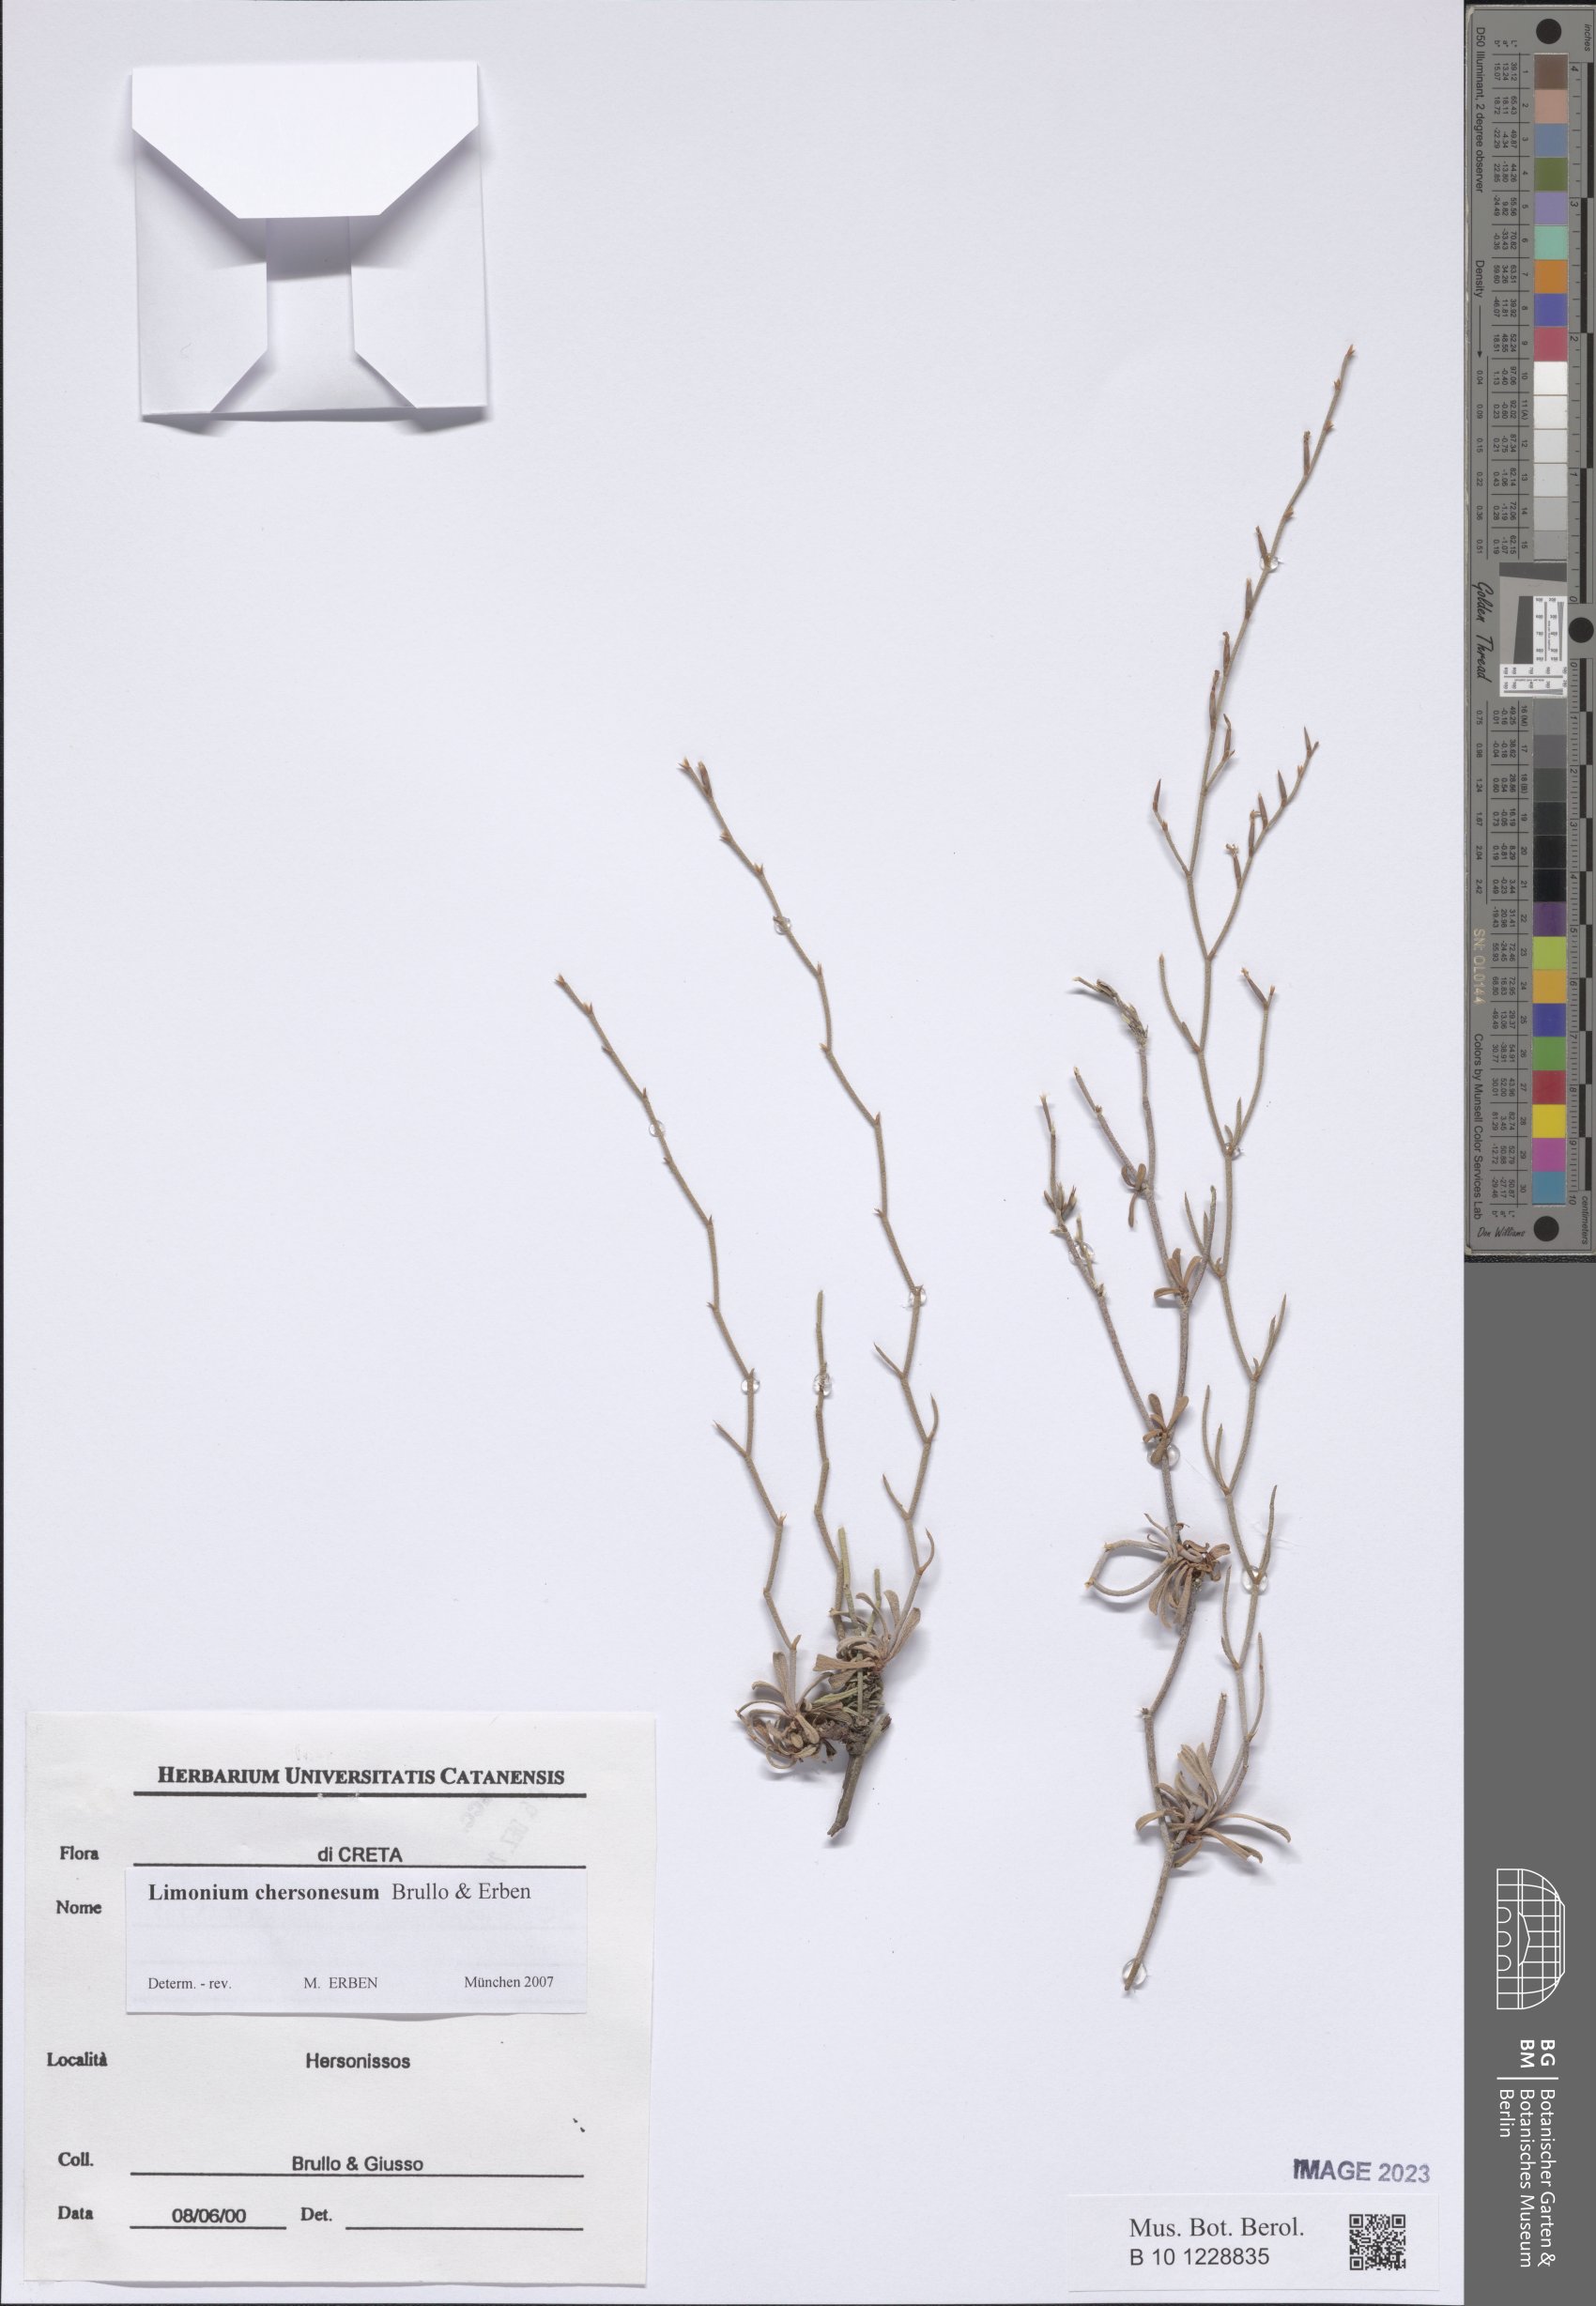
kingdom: Plantae
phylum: Tracheophyta
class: Magnoliopsida
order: Caryophyllales
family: Plumbaginaceae
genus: Limonium
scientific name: Limonium chersonesum
